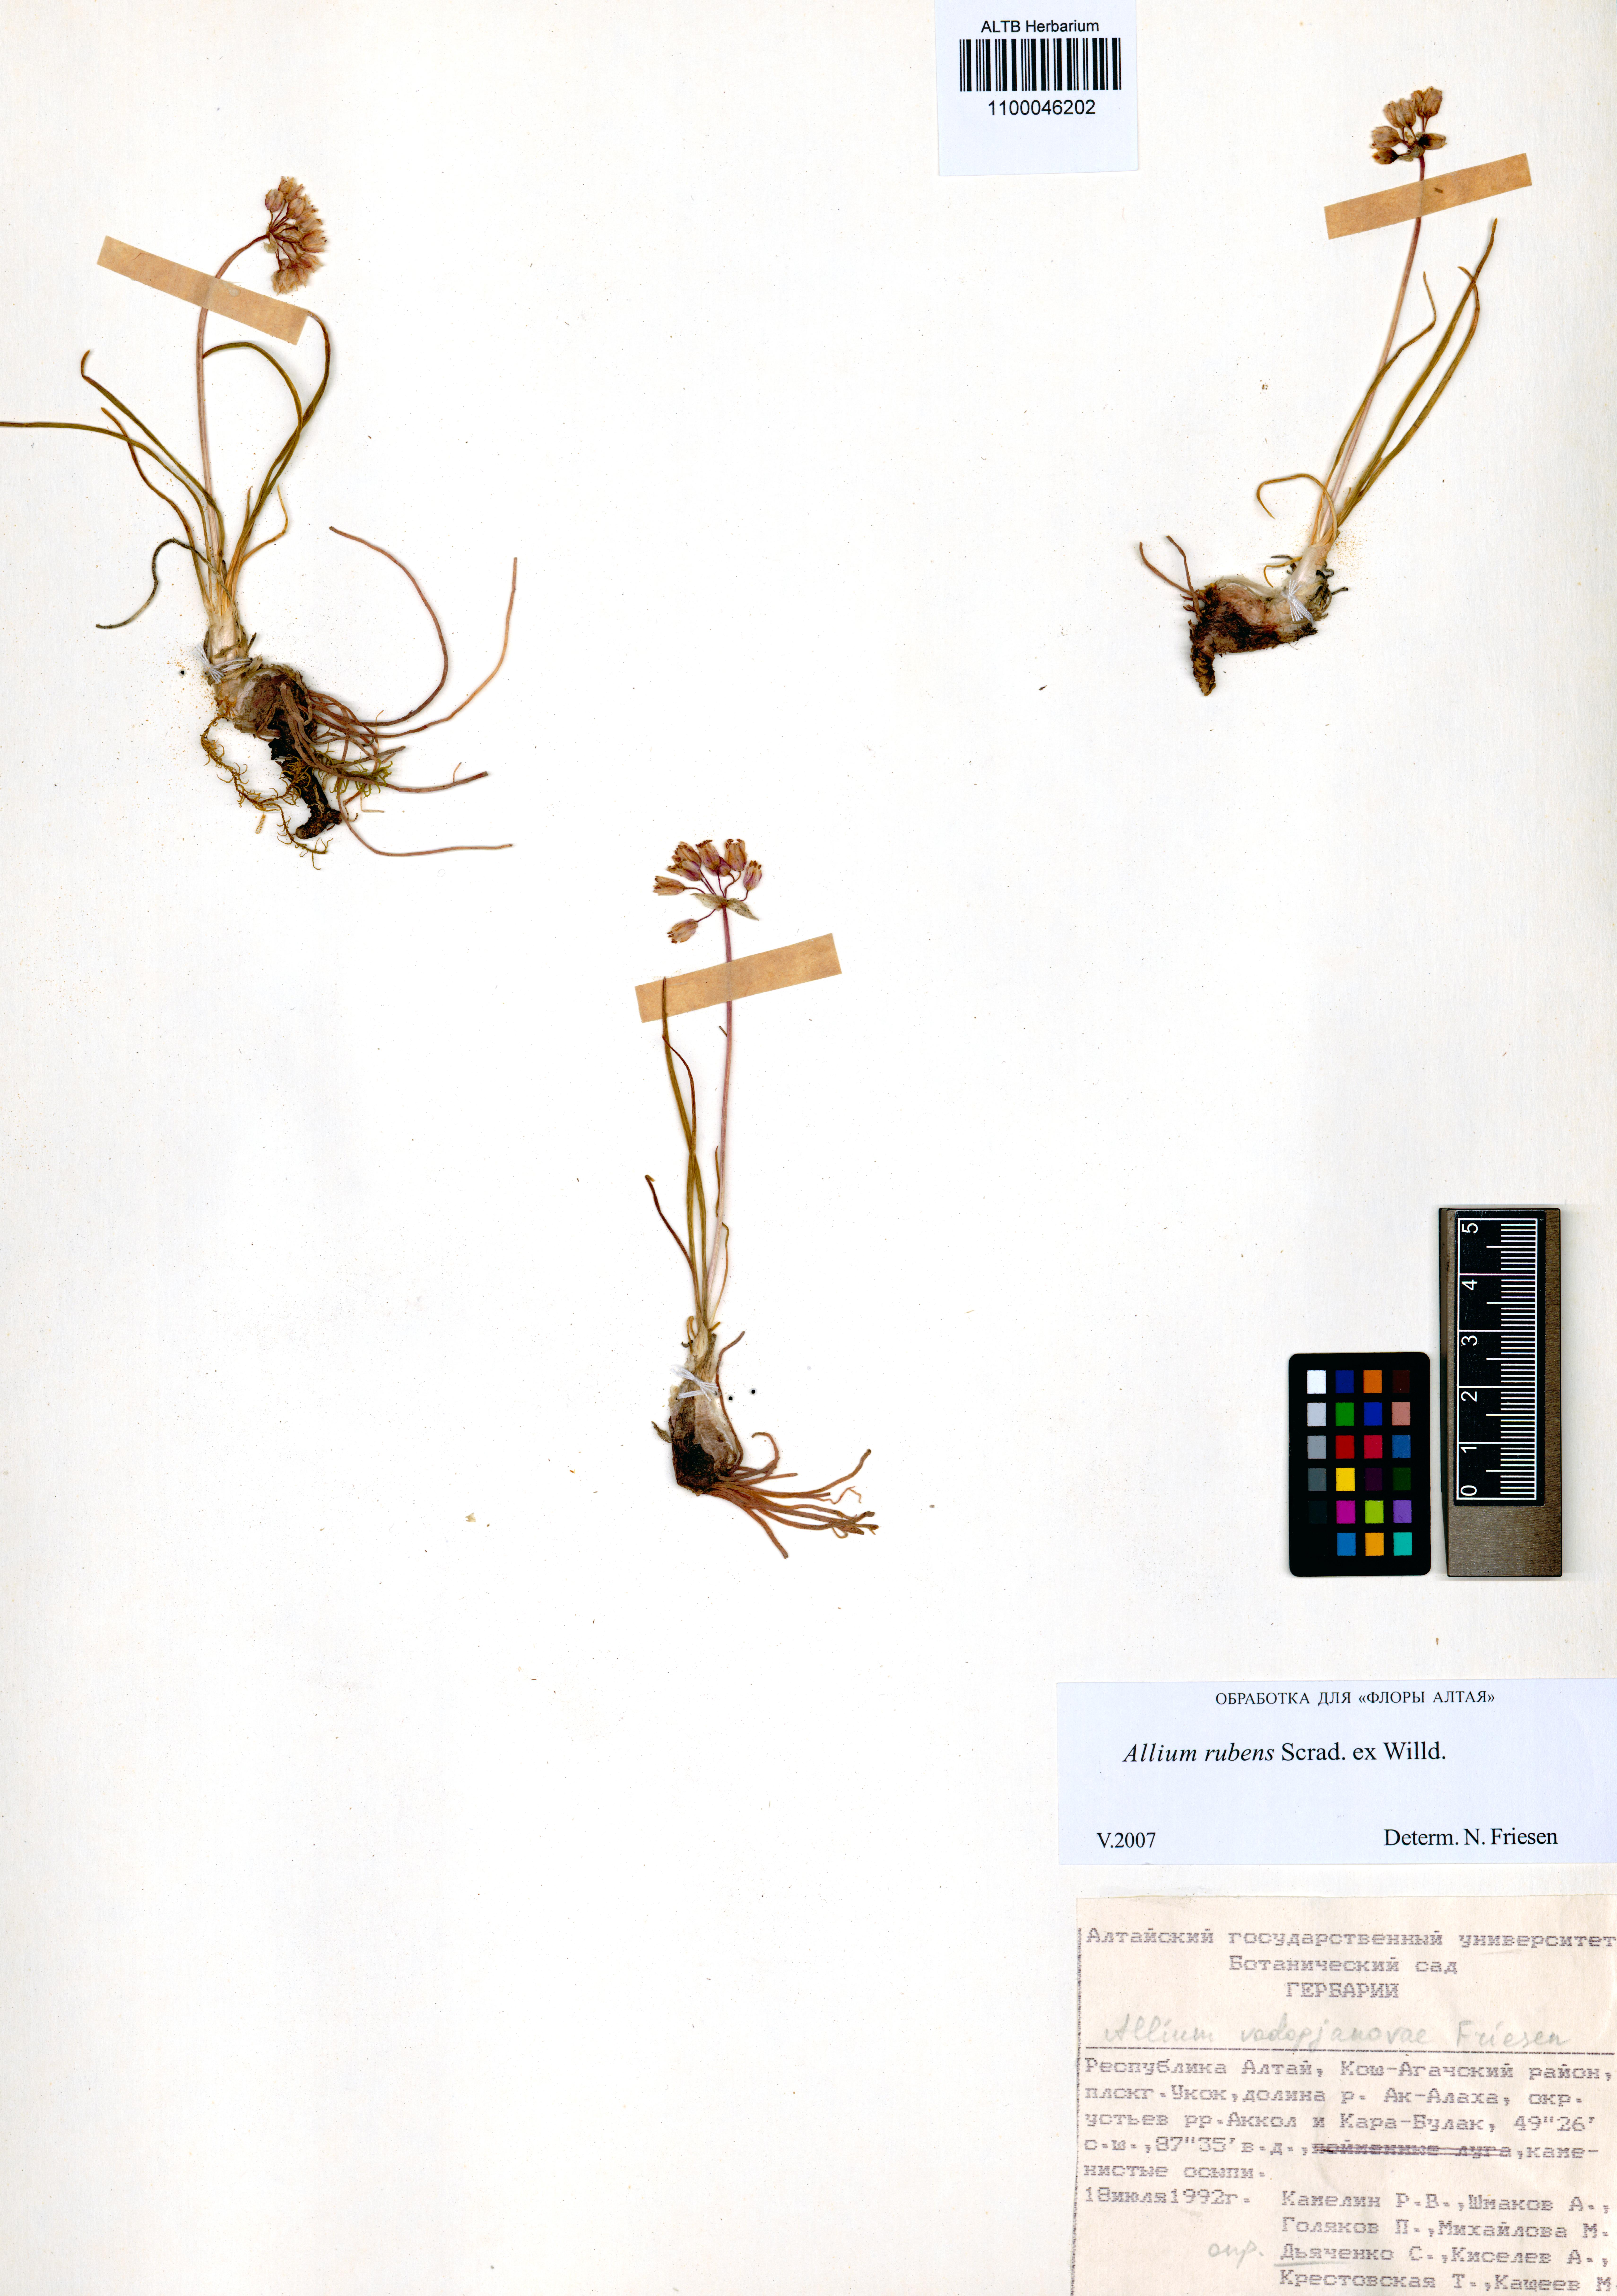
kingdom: Plantae
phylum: Tracheophyta
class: Liliopsida
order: Asparagales
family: Amaryllidaceae
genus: Allium
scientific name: Allium rubens
